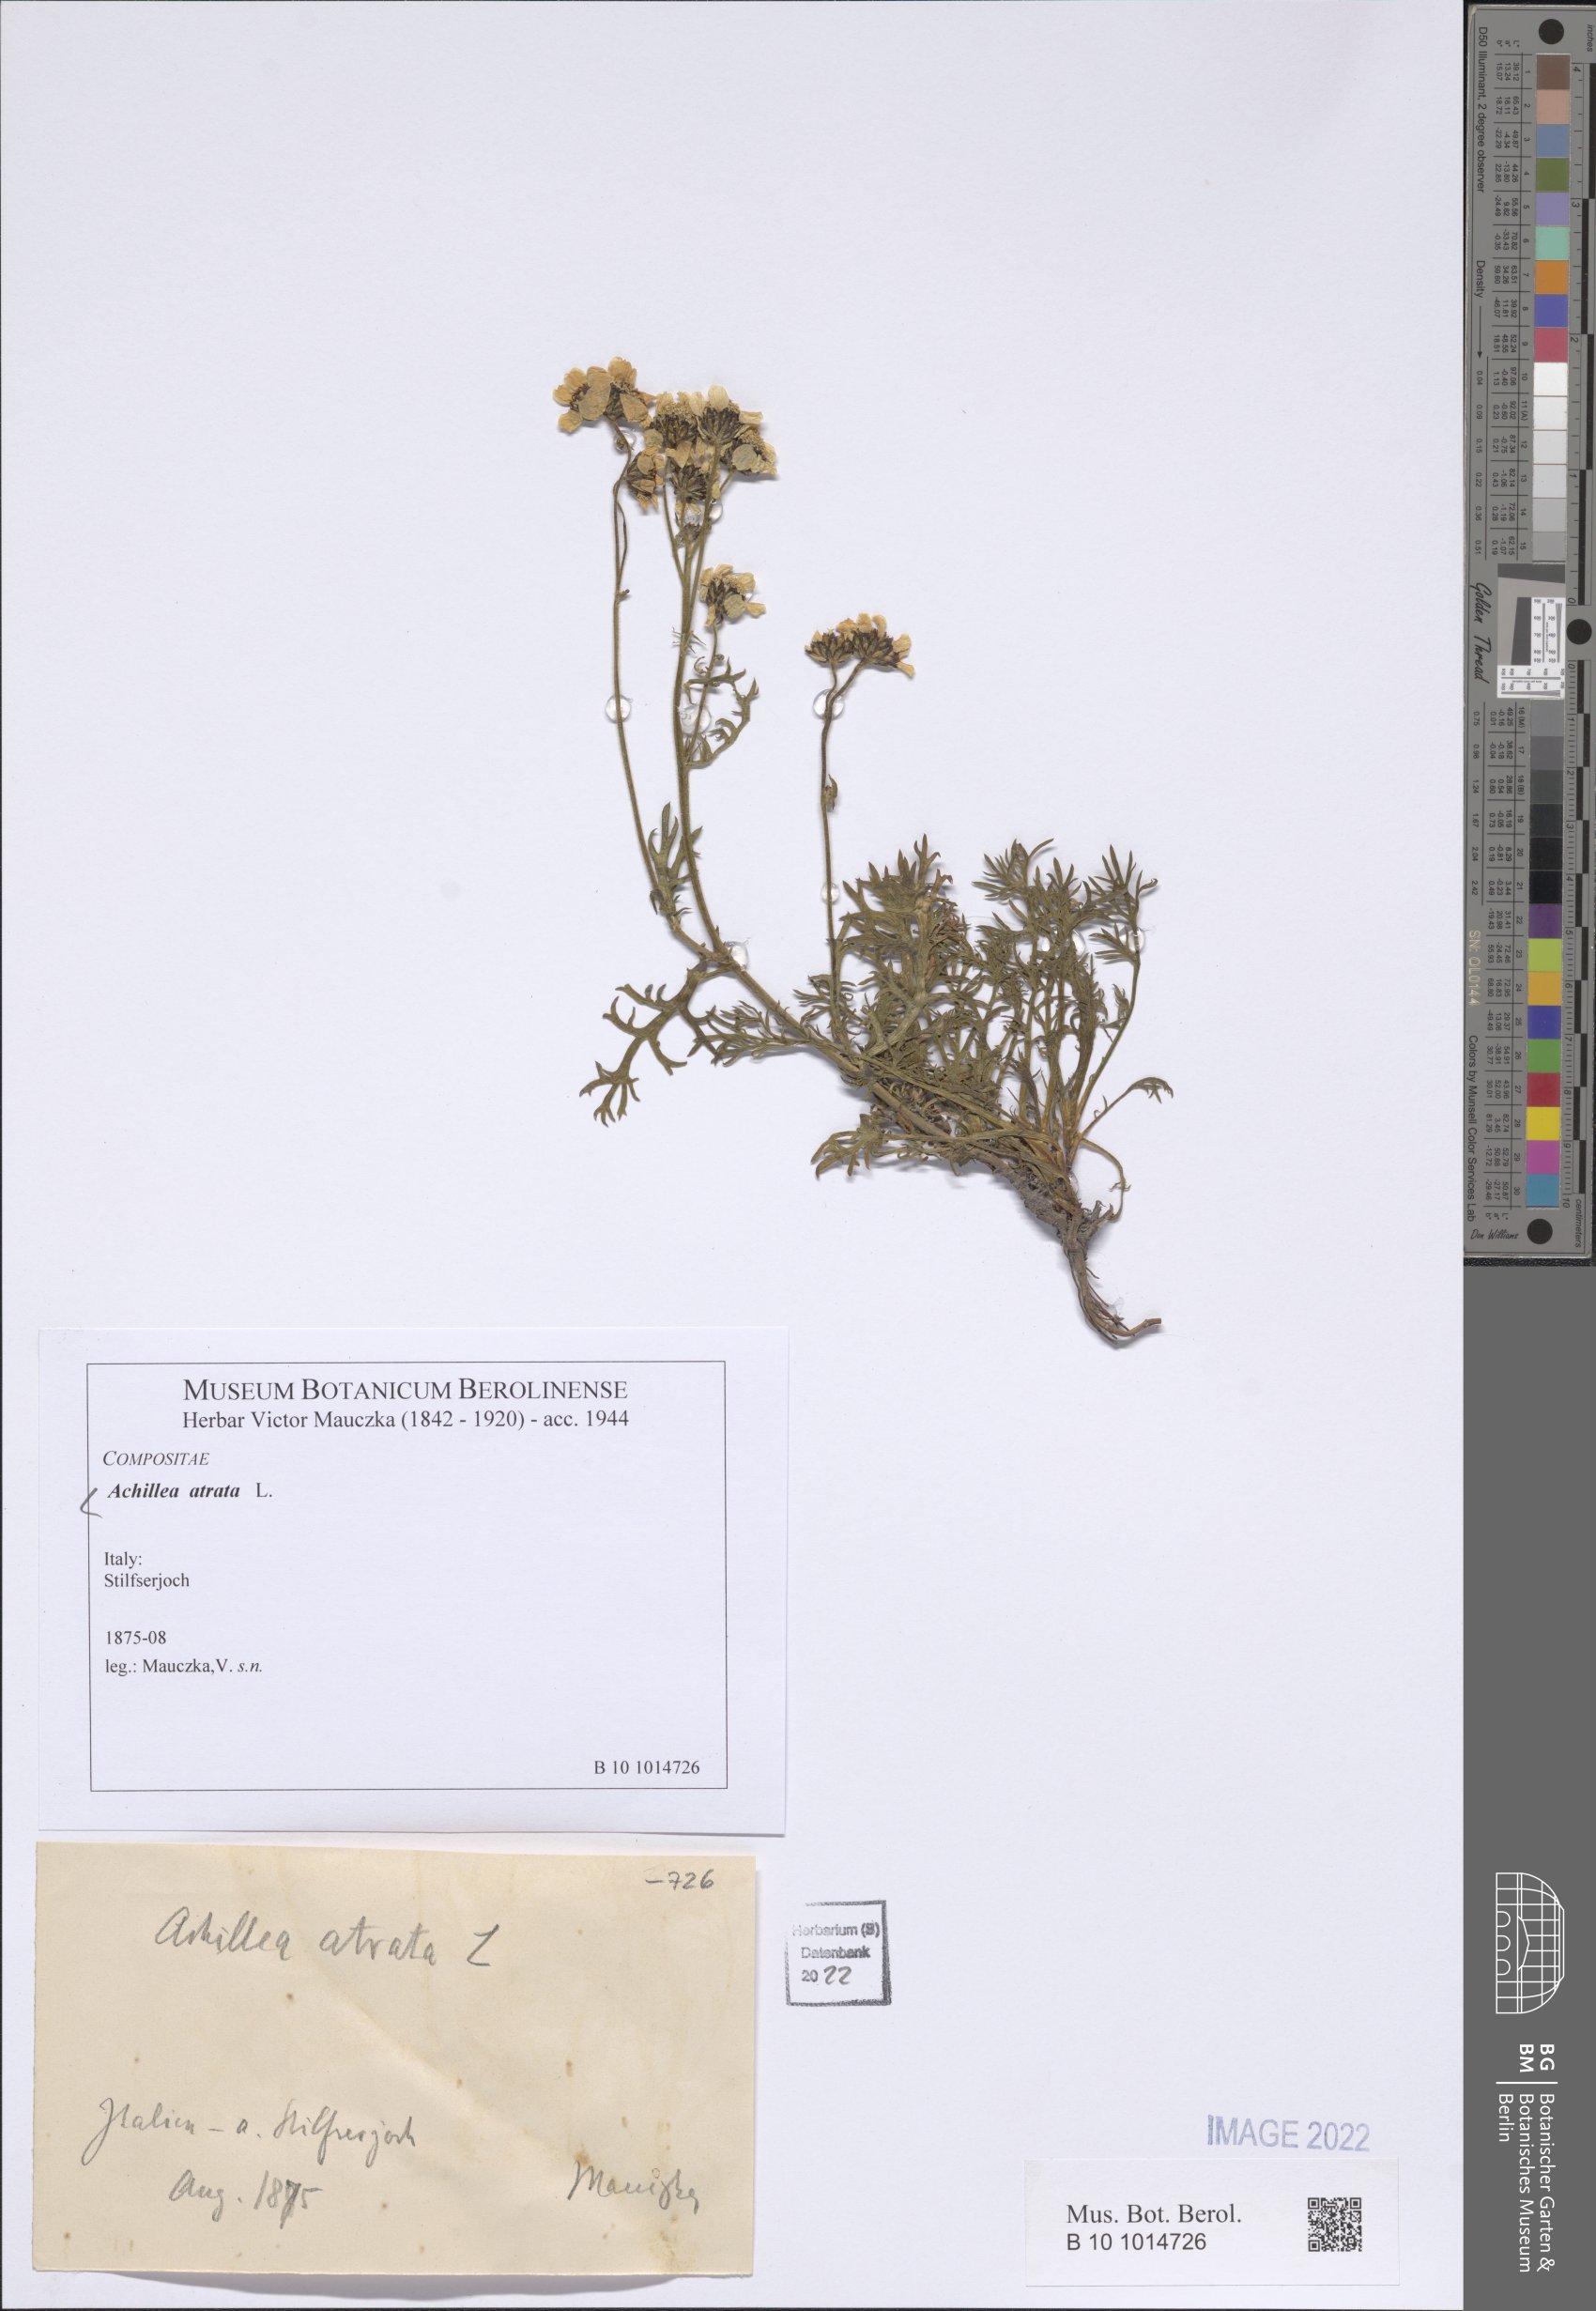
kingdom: Plantae
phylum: Tracheophyta
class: Magnoliopsida
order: Asterales
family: Asteraceae
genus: Achillea
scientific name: Achillea atrata
